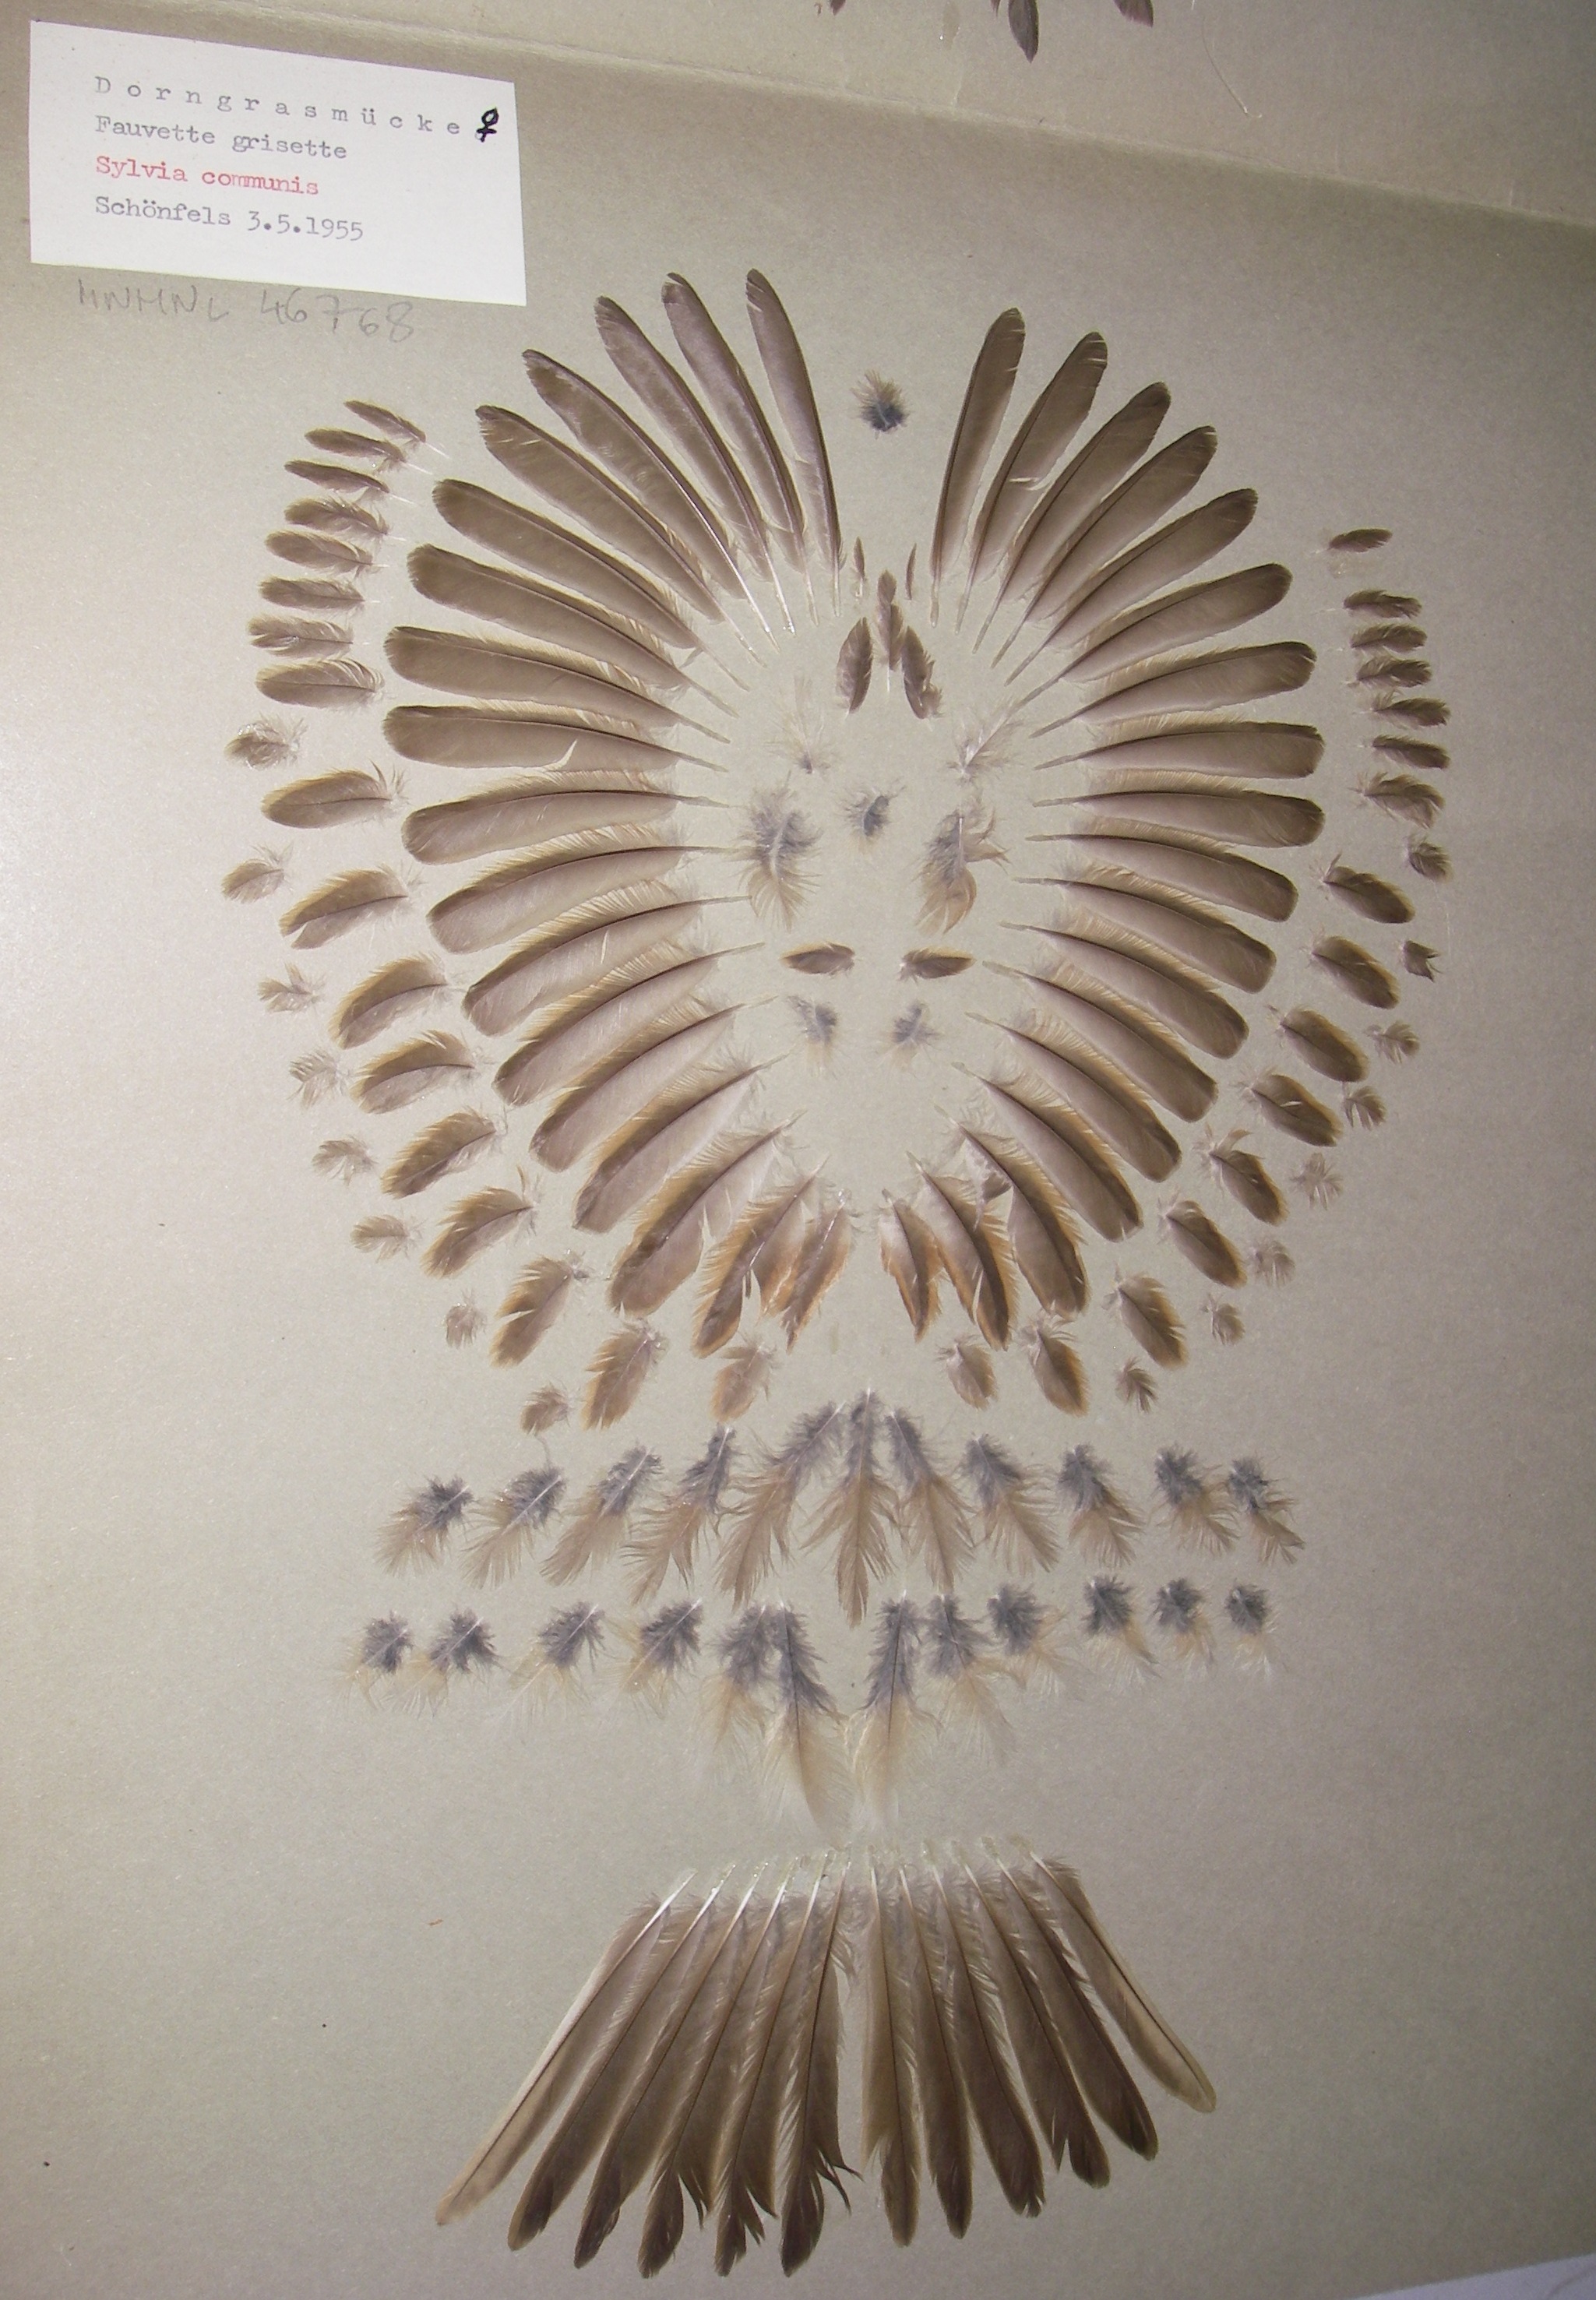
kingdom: Animalia
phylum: Chordata
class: Aves
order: Passeriformes
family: Sylviidae
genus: Sylvia
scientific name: Sylvia communis
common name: Common whitethroat
